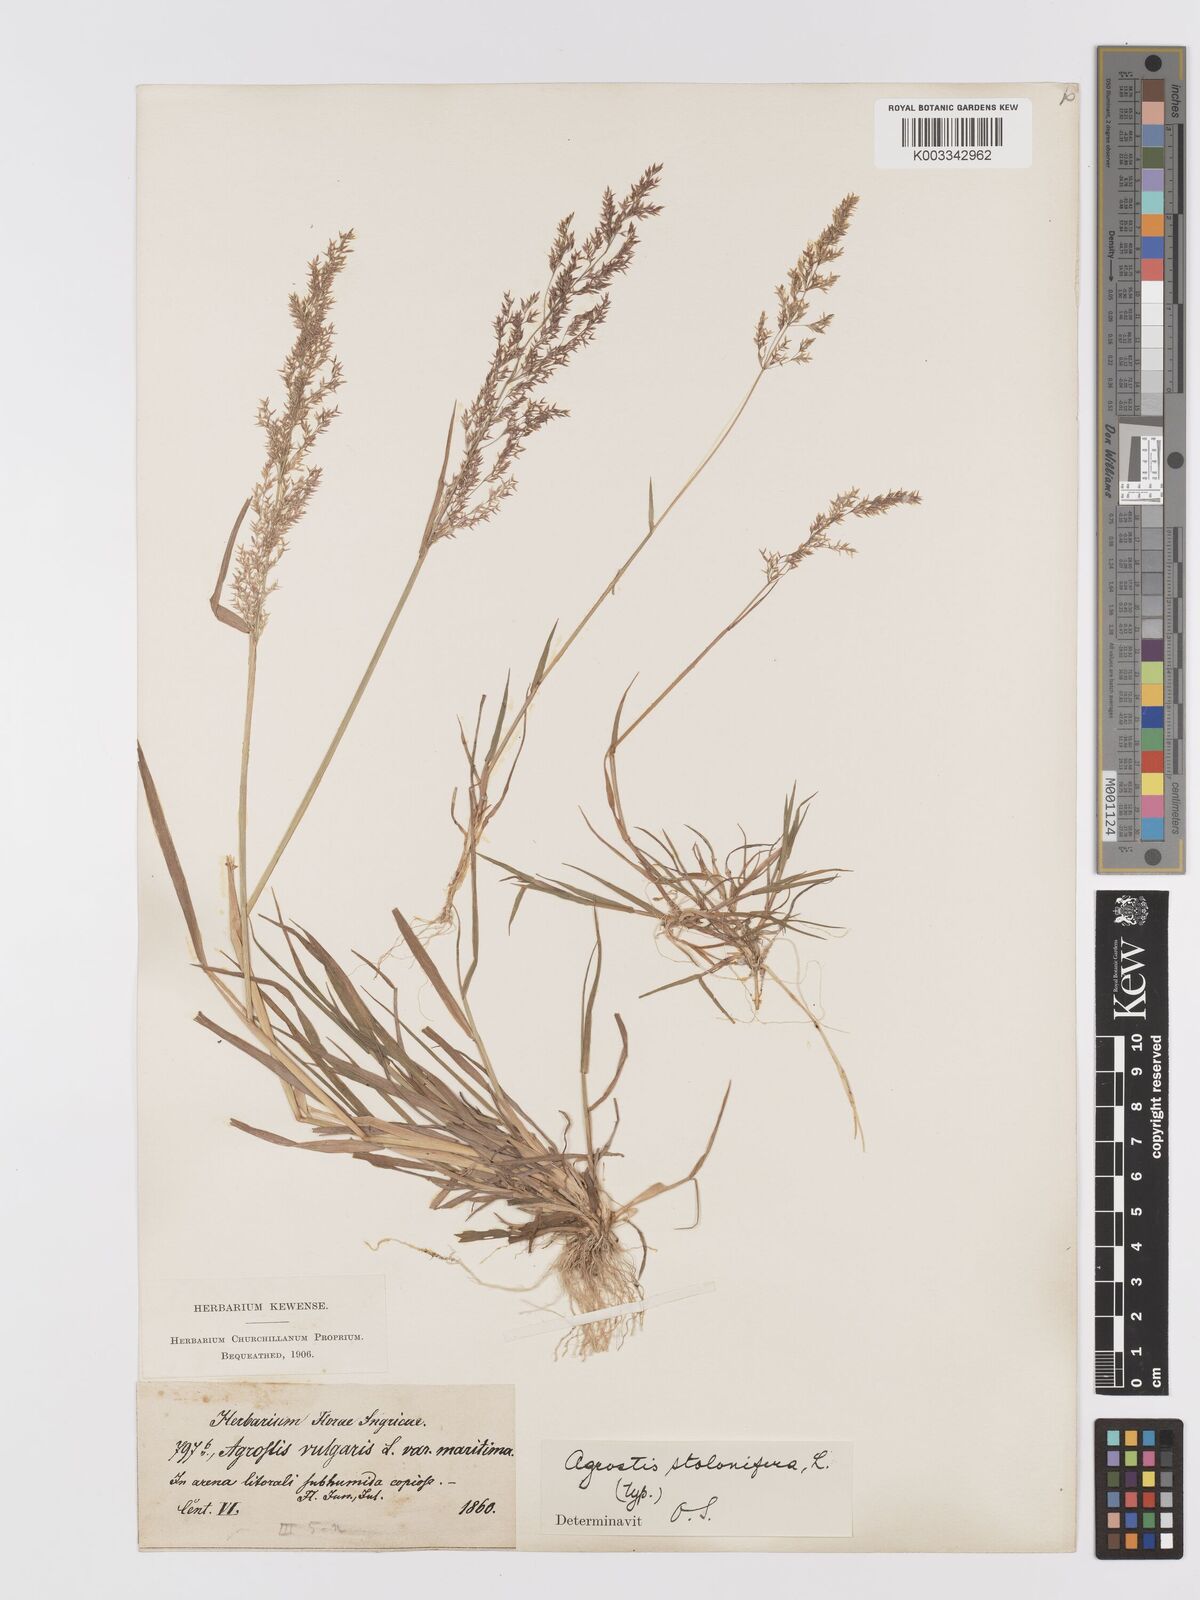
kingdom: Plantae
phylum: Tracheophyta
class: Liliopsida
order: Poales
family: Poaceae
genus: Agrostis
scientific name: Agrostis stolonifera
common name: Creeping bentgrass
